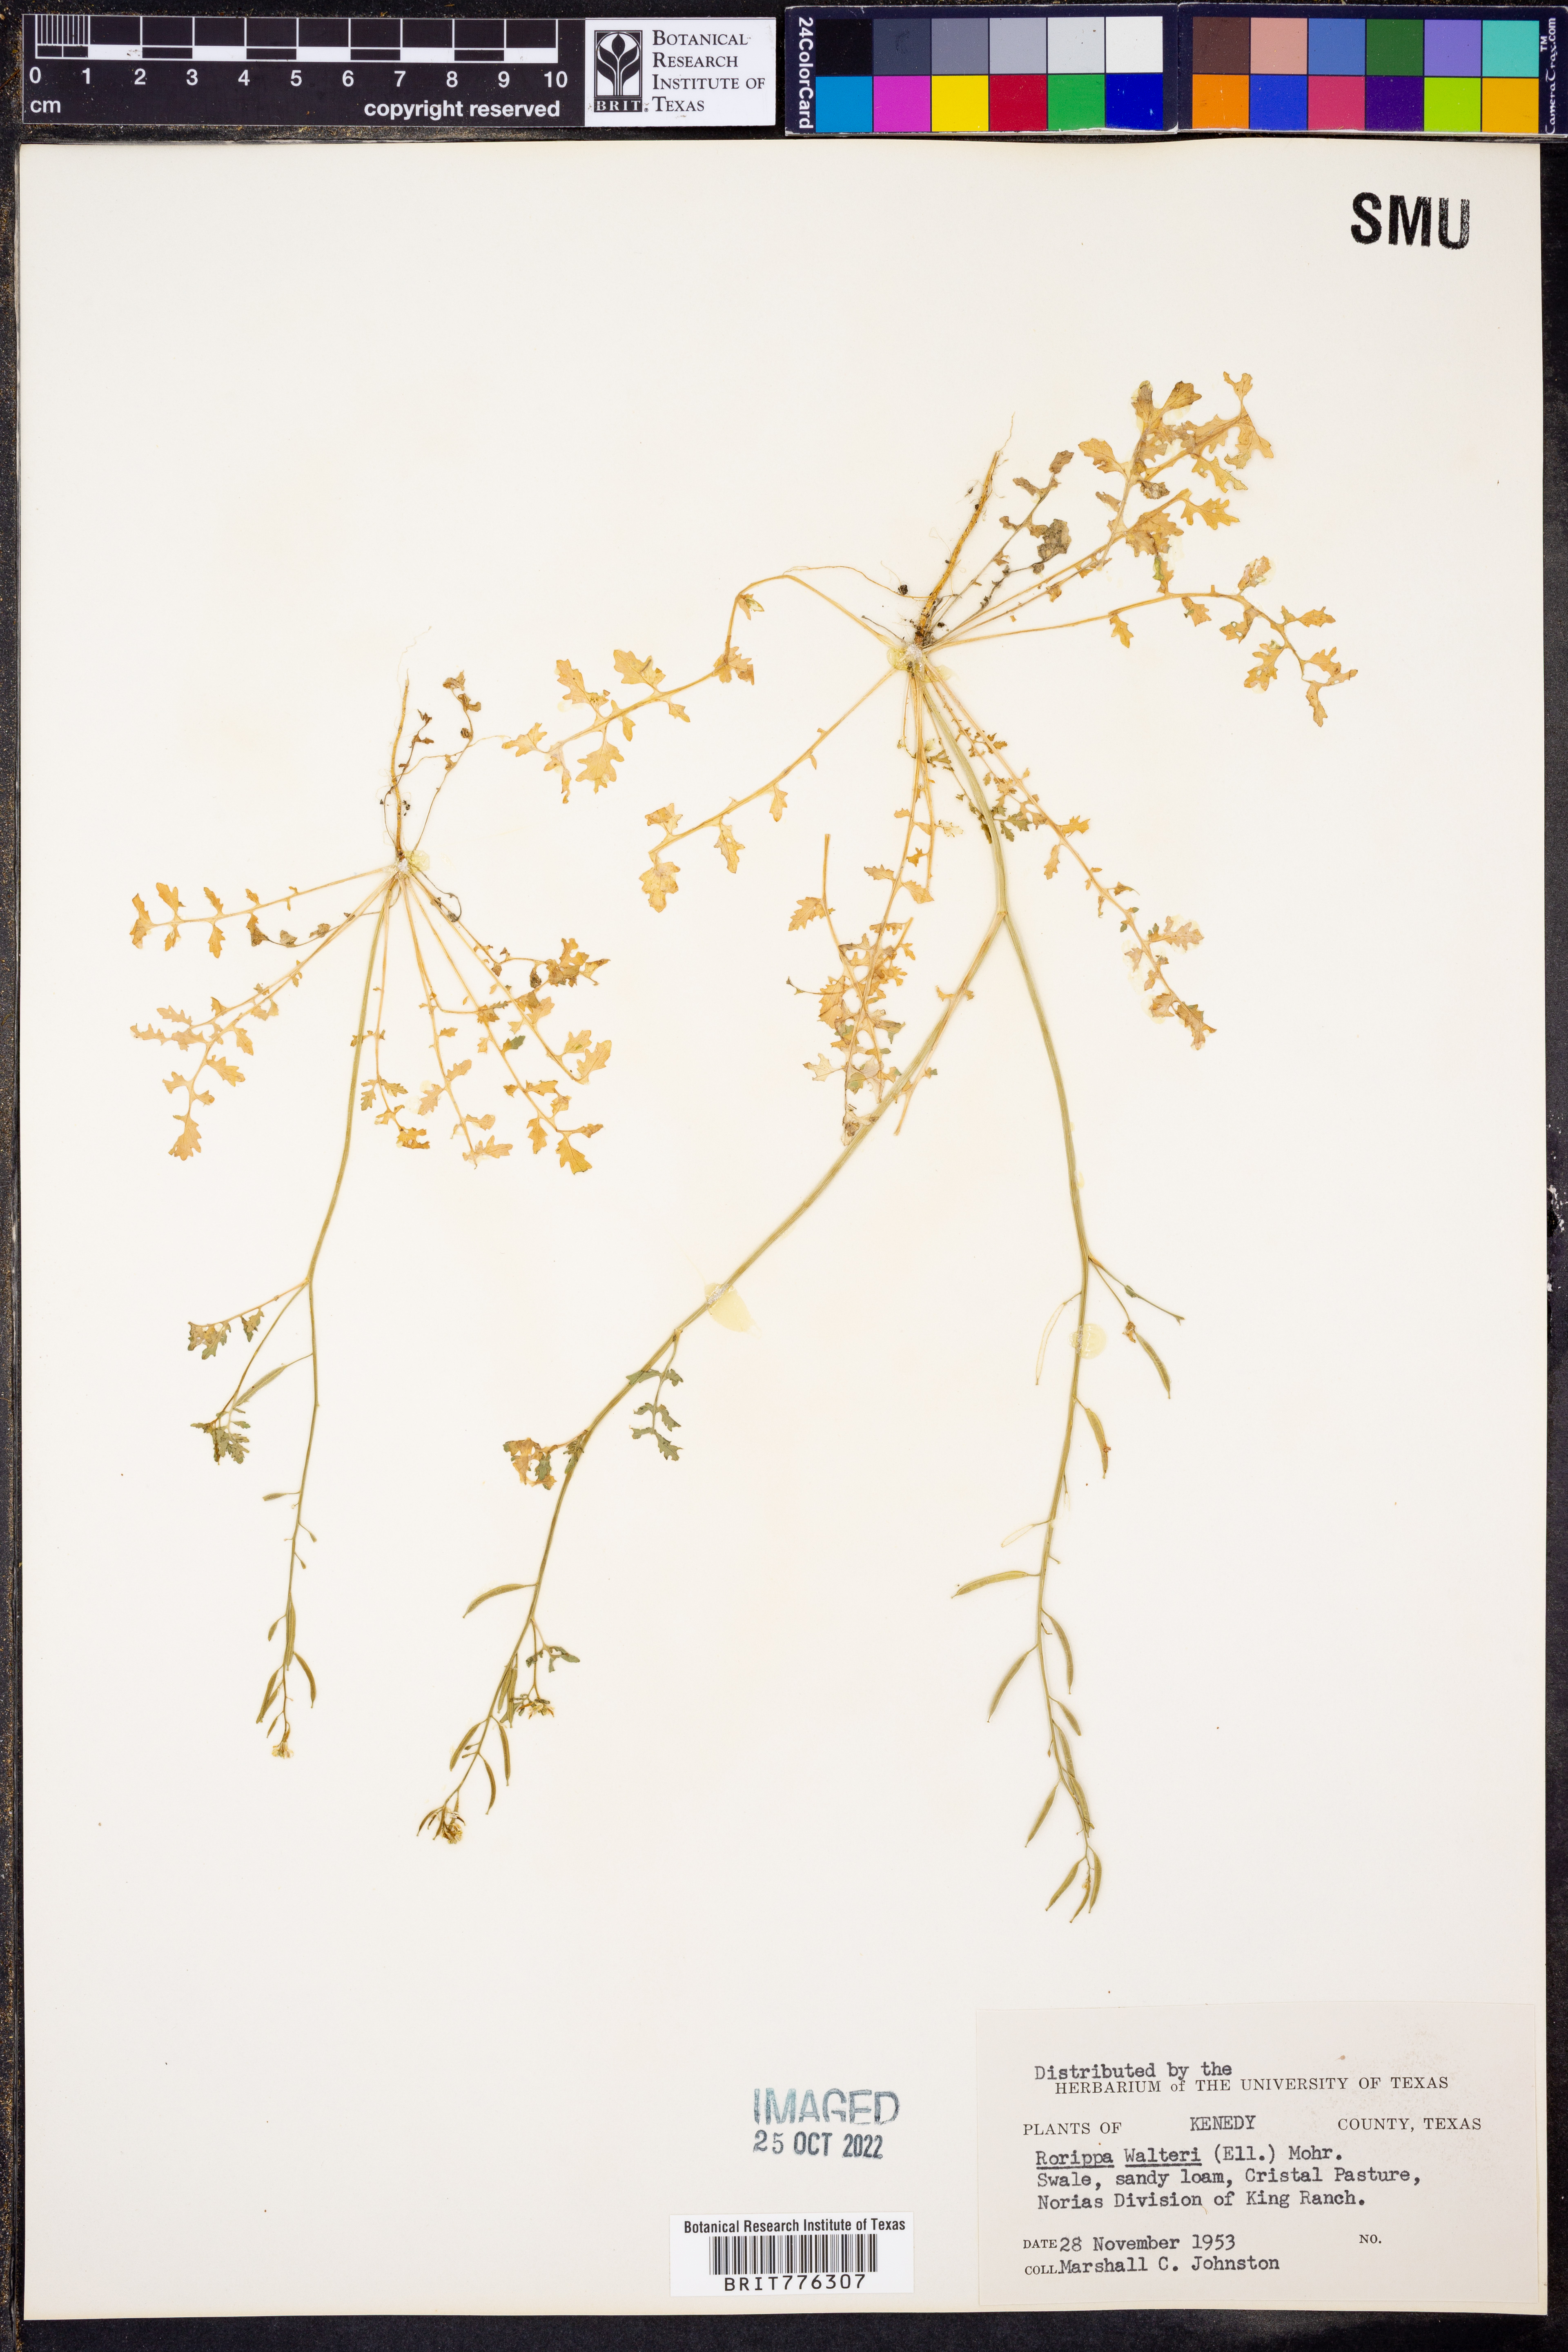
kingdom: Plantae
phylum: Tracheophyta
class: Magnoliopsida
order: Brassicales
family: Brassicaceae
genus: Rorippa
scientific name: Rorippa teres
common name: Southern marsh yellowcress
